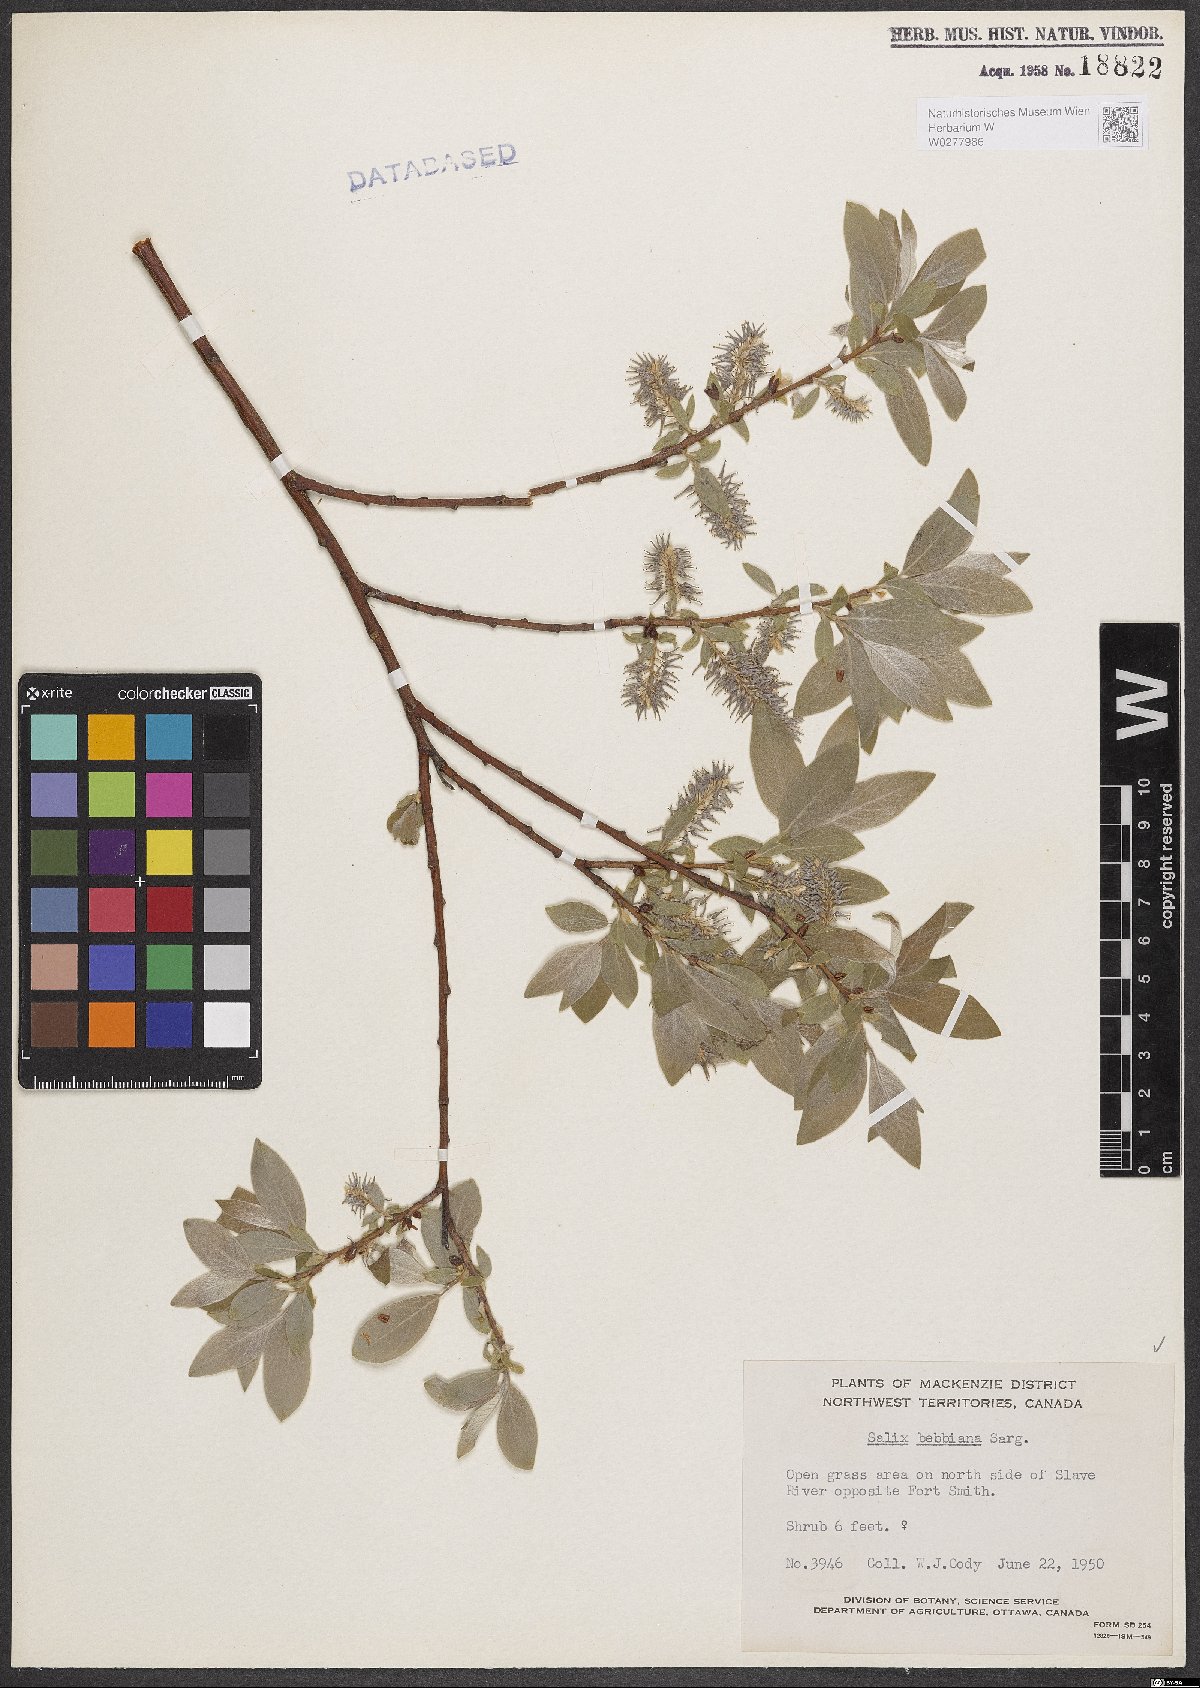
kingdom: Plantae
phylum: Tracheophyta
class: Magnoliopsida
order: Malpighiales
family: Salicaceae
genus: Salix
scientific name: Salix bebbiana
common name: Bebb's willow
